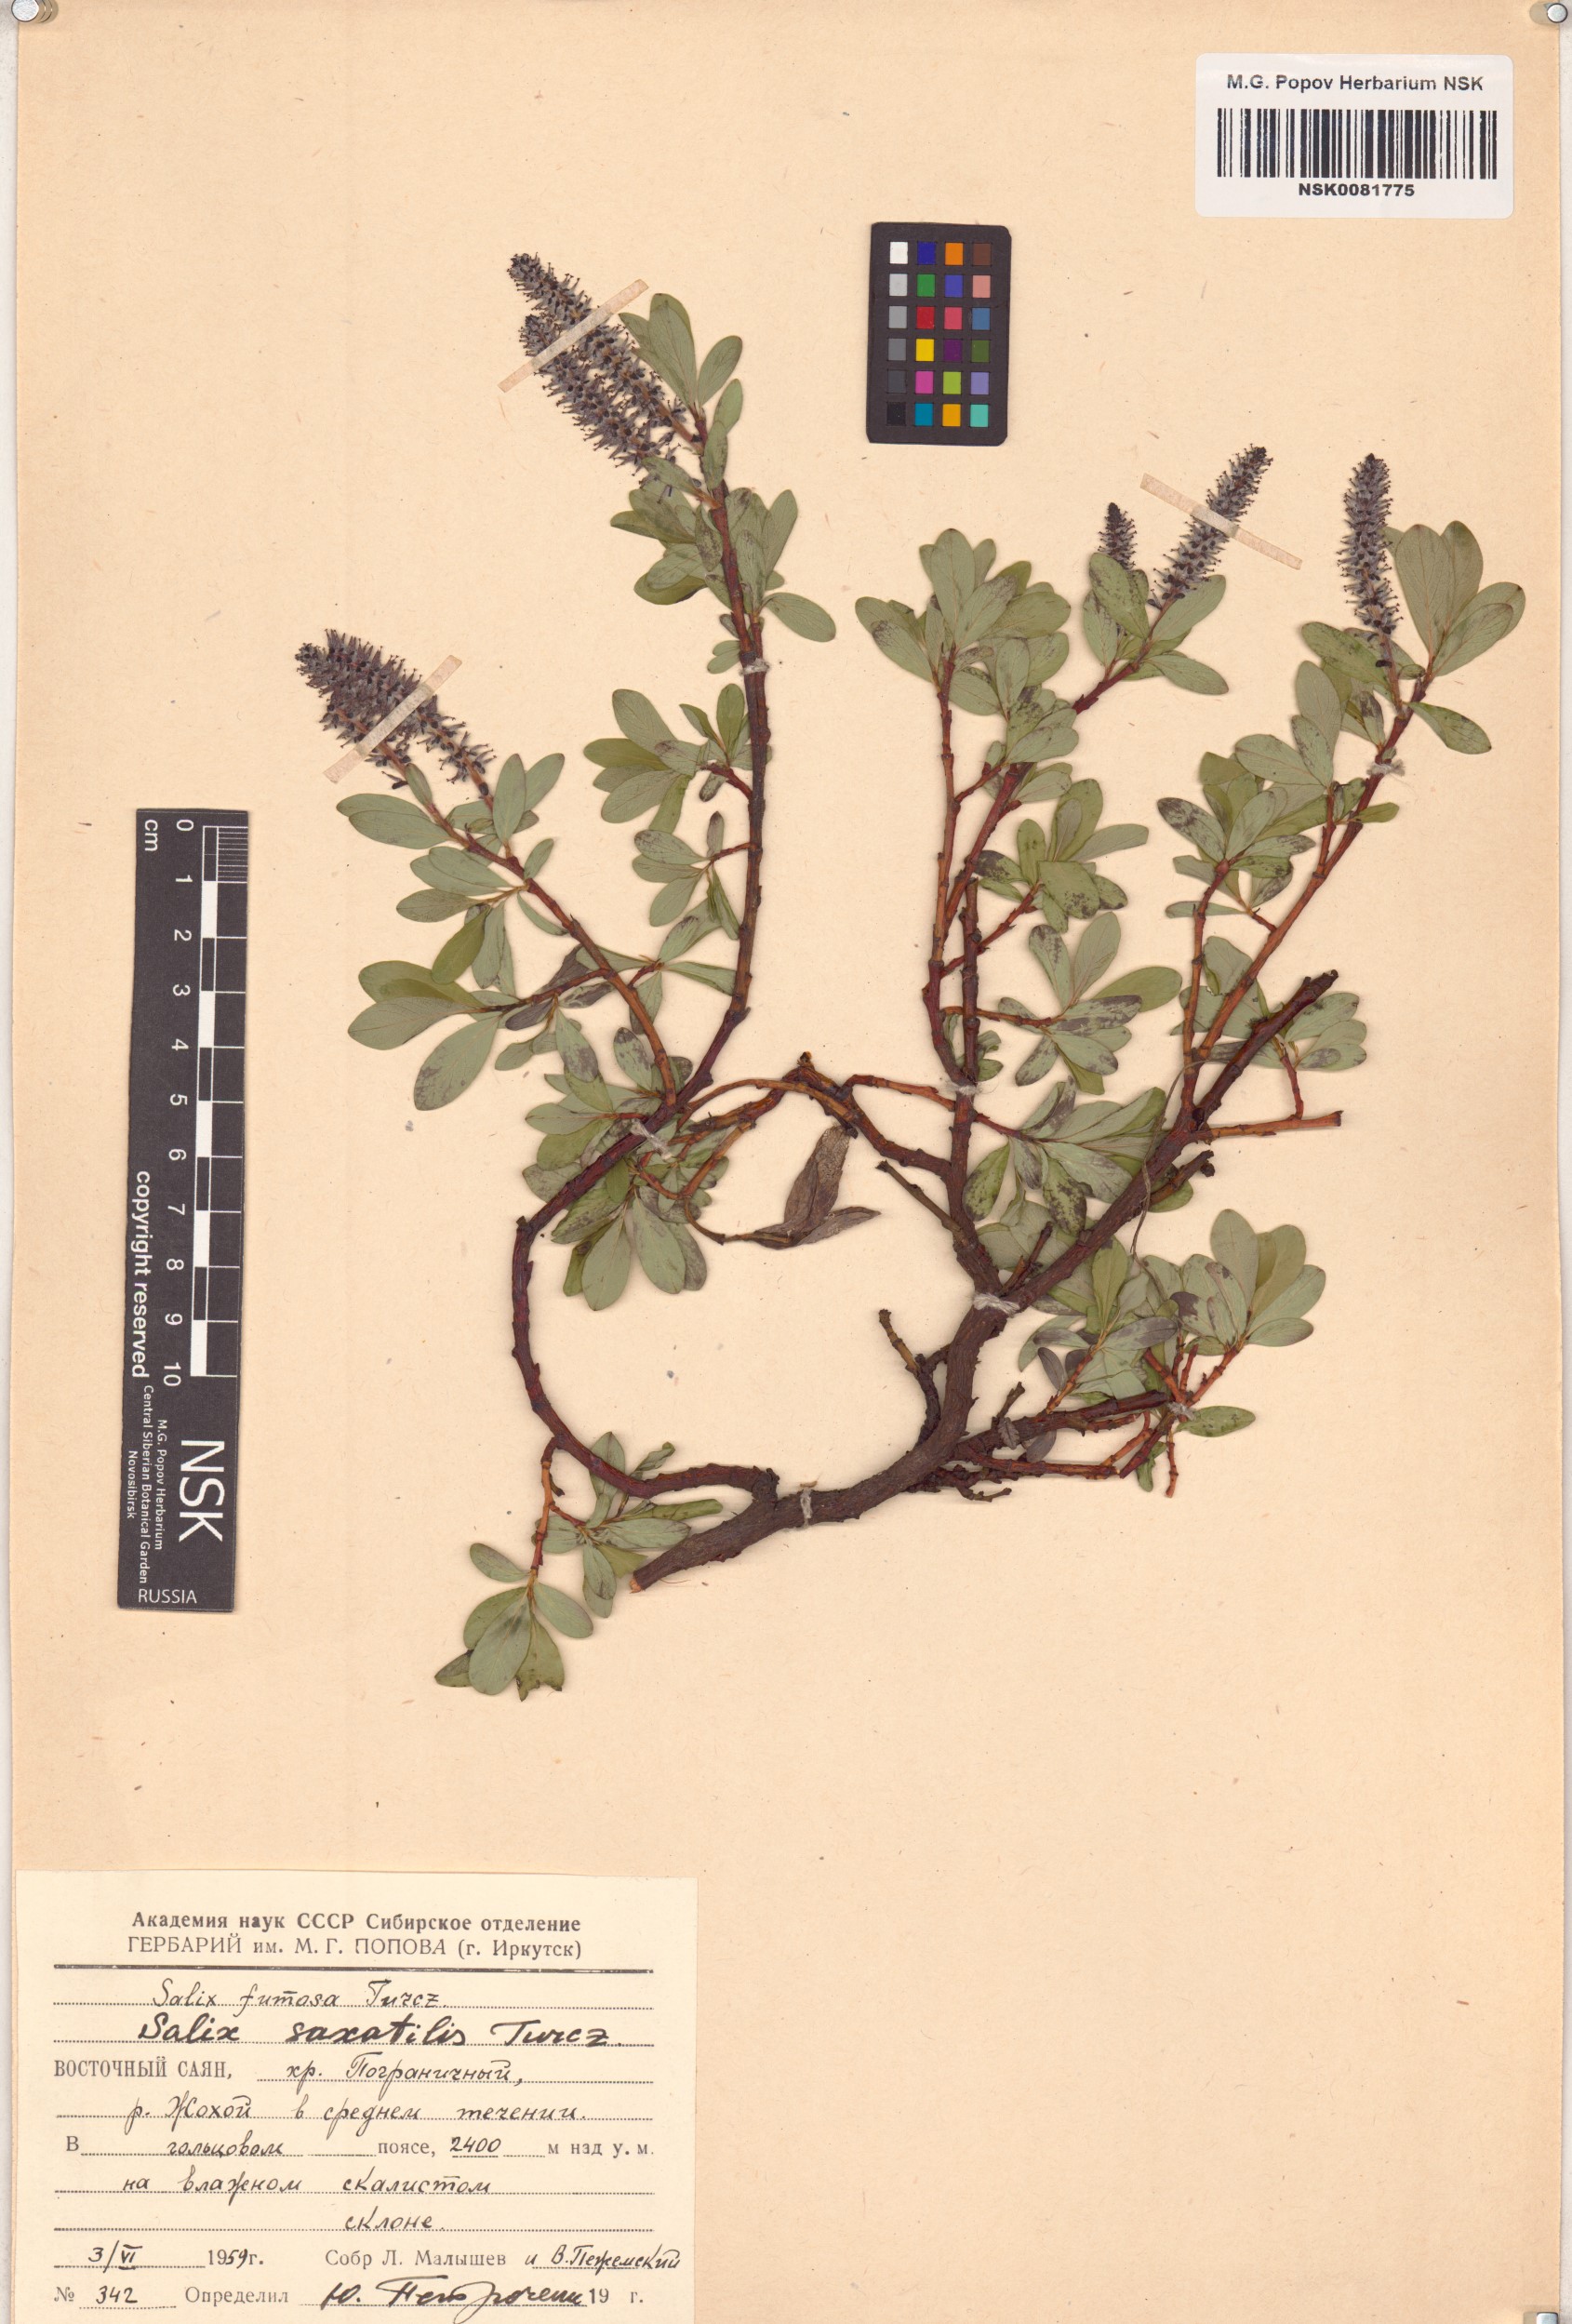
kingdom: Plantae
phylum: Tracheophyta
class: Magnoliopsida
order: Malpighiales
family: Salicaceae
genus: Salix
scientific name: Salix saxatilis
